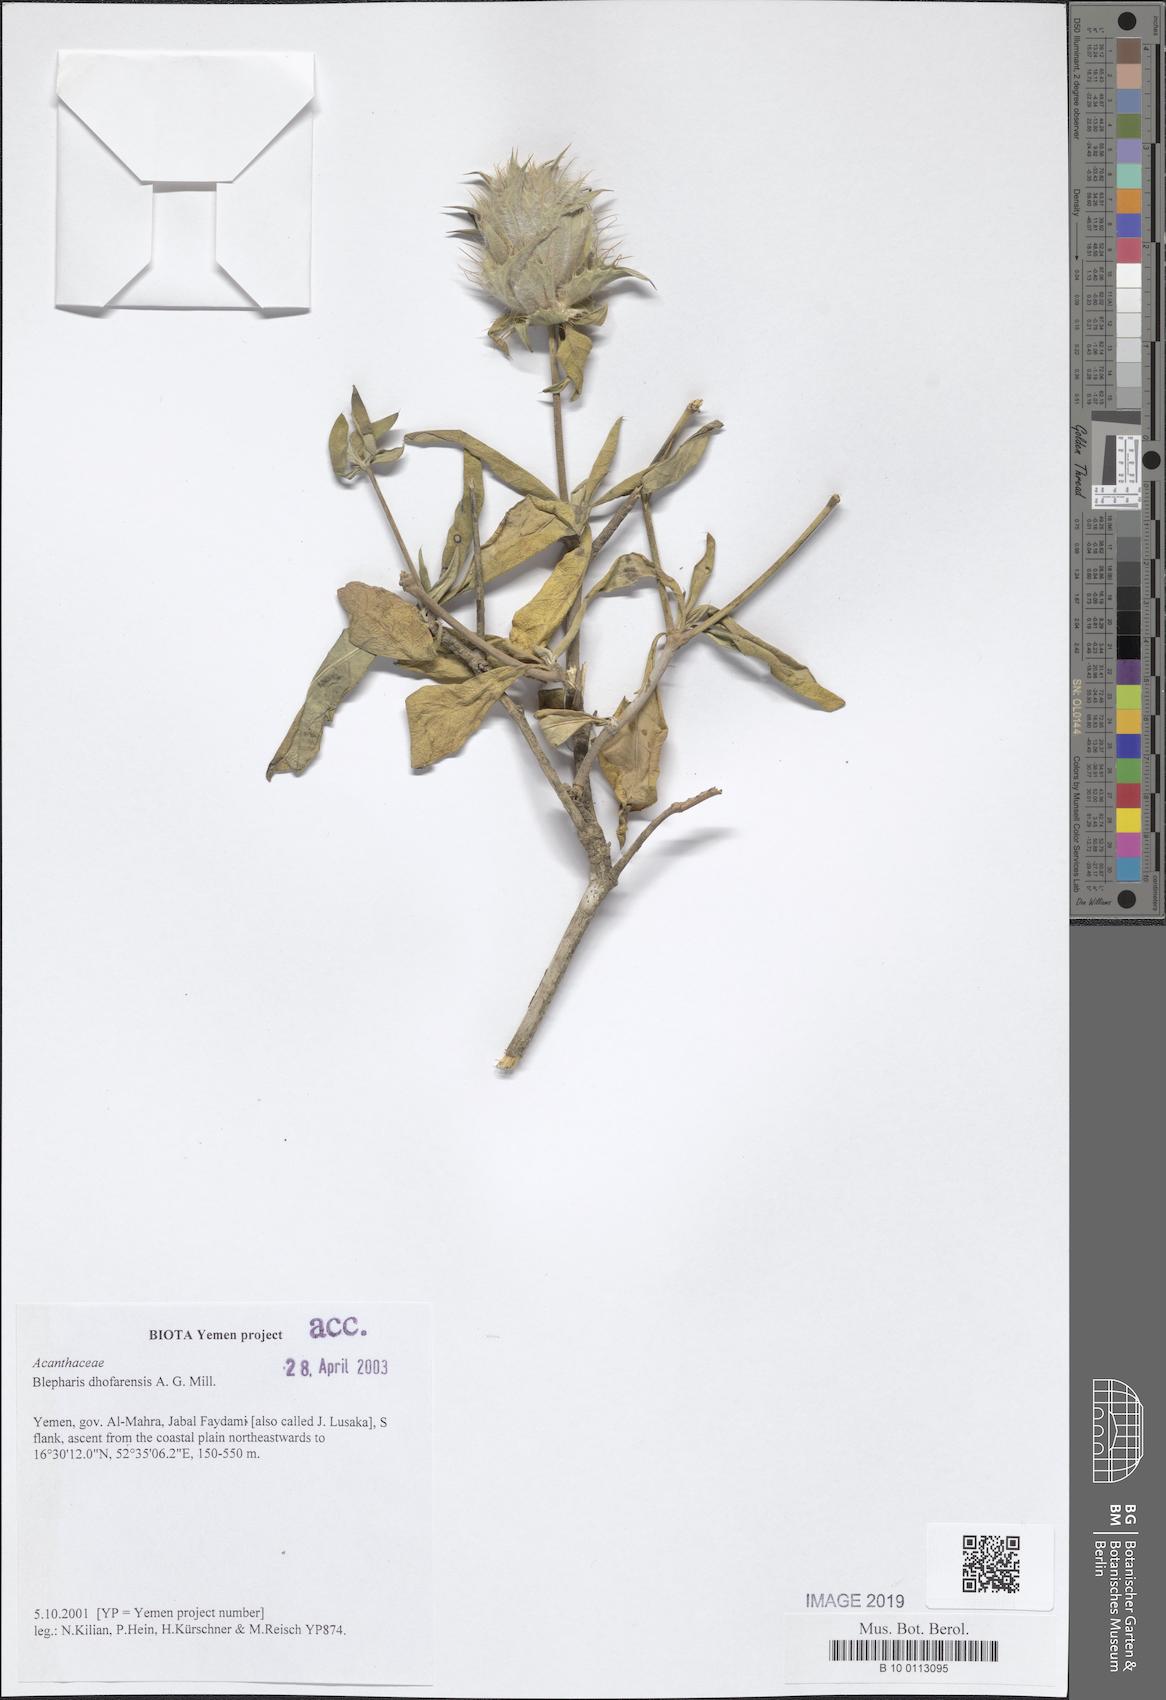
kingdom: Plantae
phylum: Tracheophyta
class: Magnoliopsida
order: Lamiales
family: Acanthaceae
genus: Blepharis
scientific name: Blepharis dhofarensis
